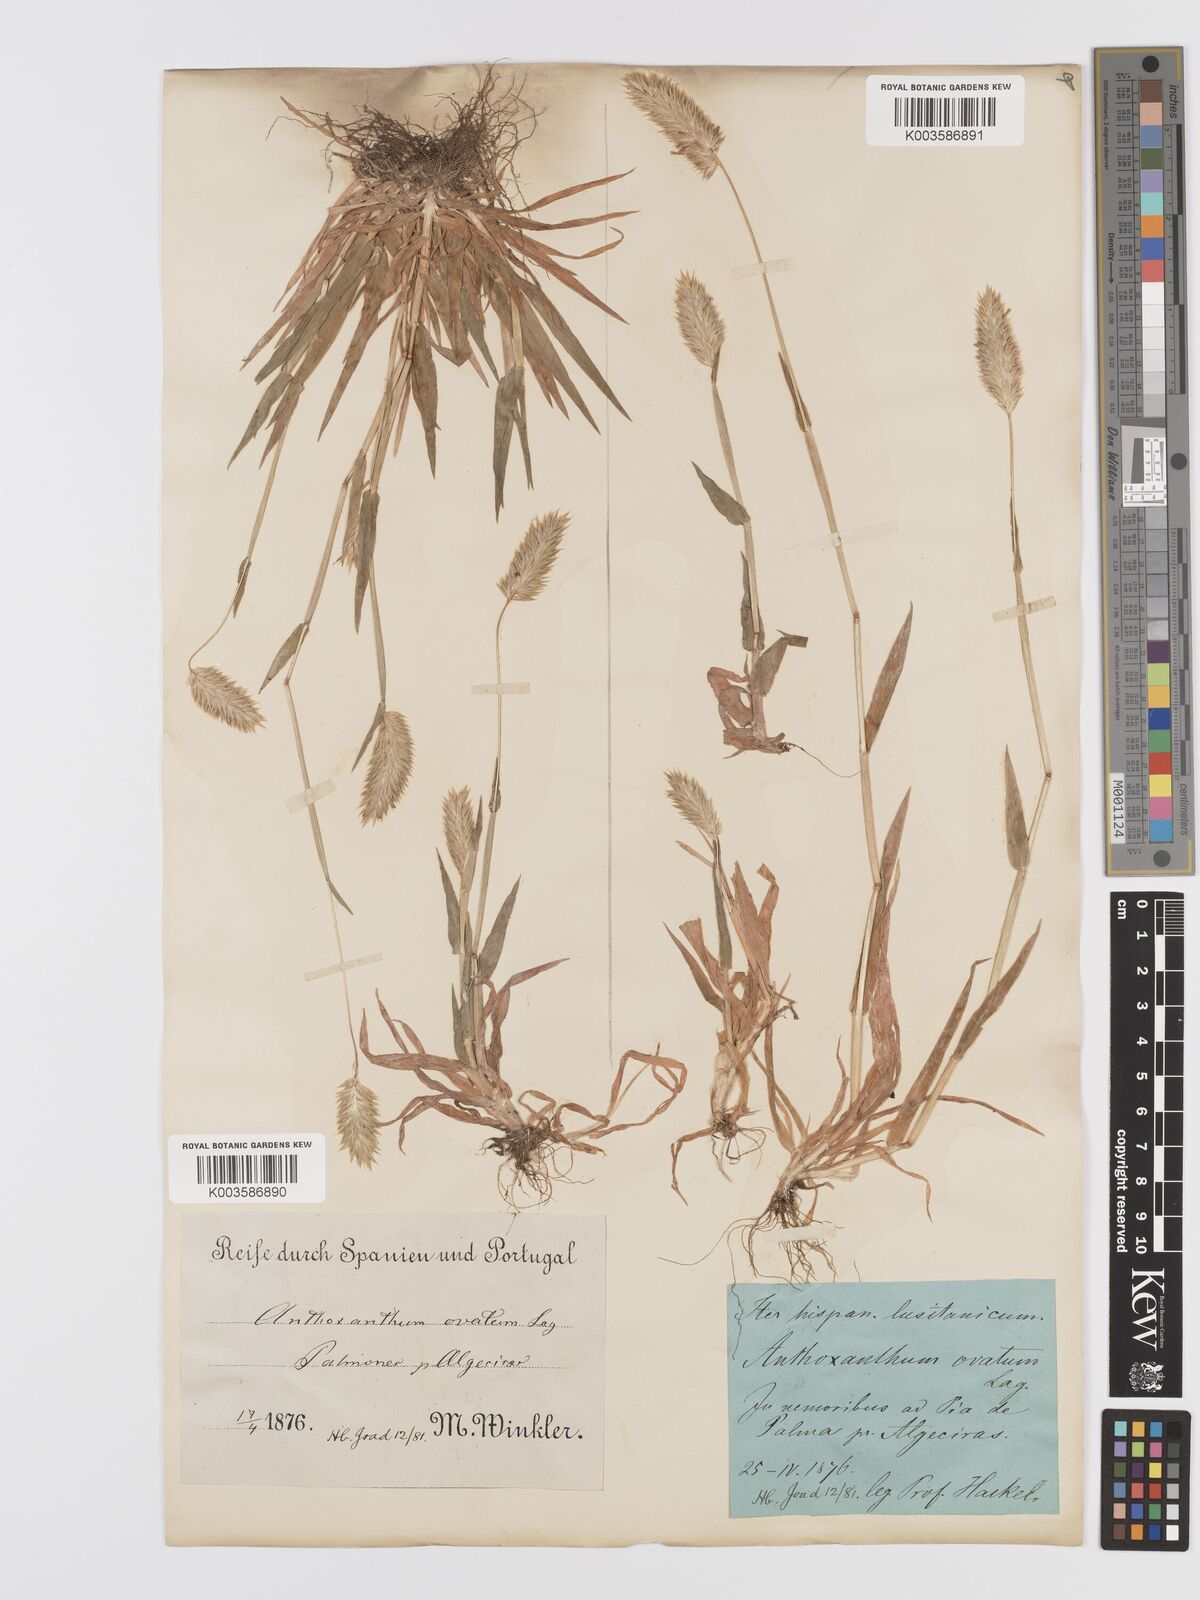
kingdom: Plantae
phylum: Tracheophyta
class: Liliopsida
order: Poales
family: Poaceae
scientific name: Poaceae
